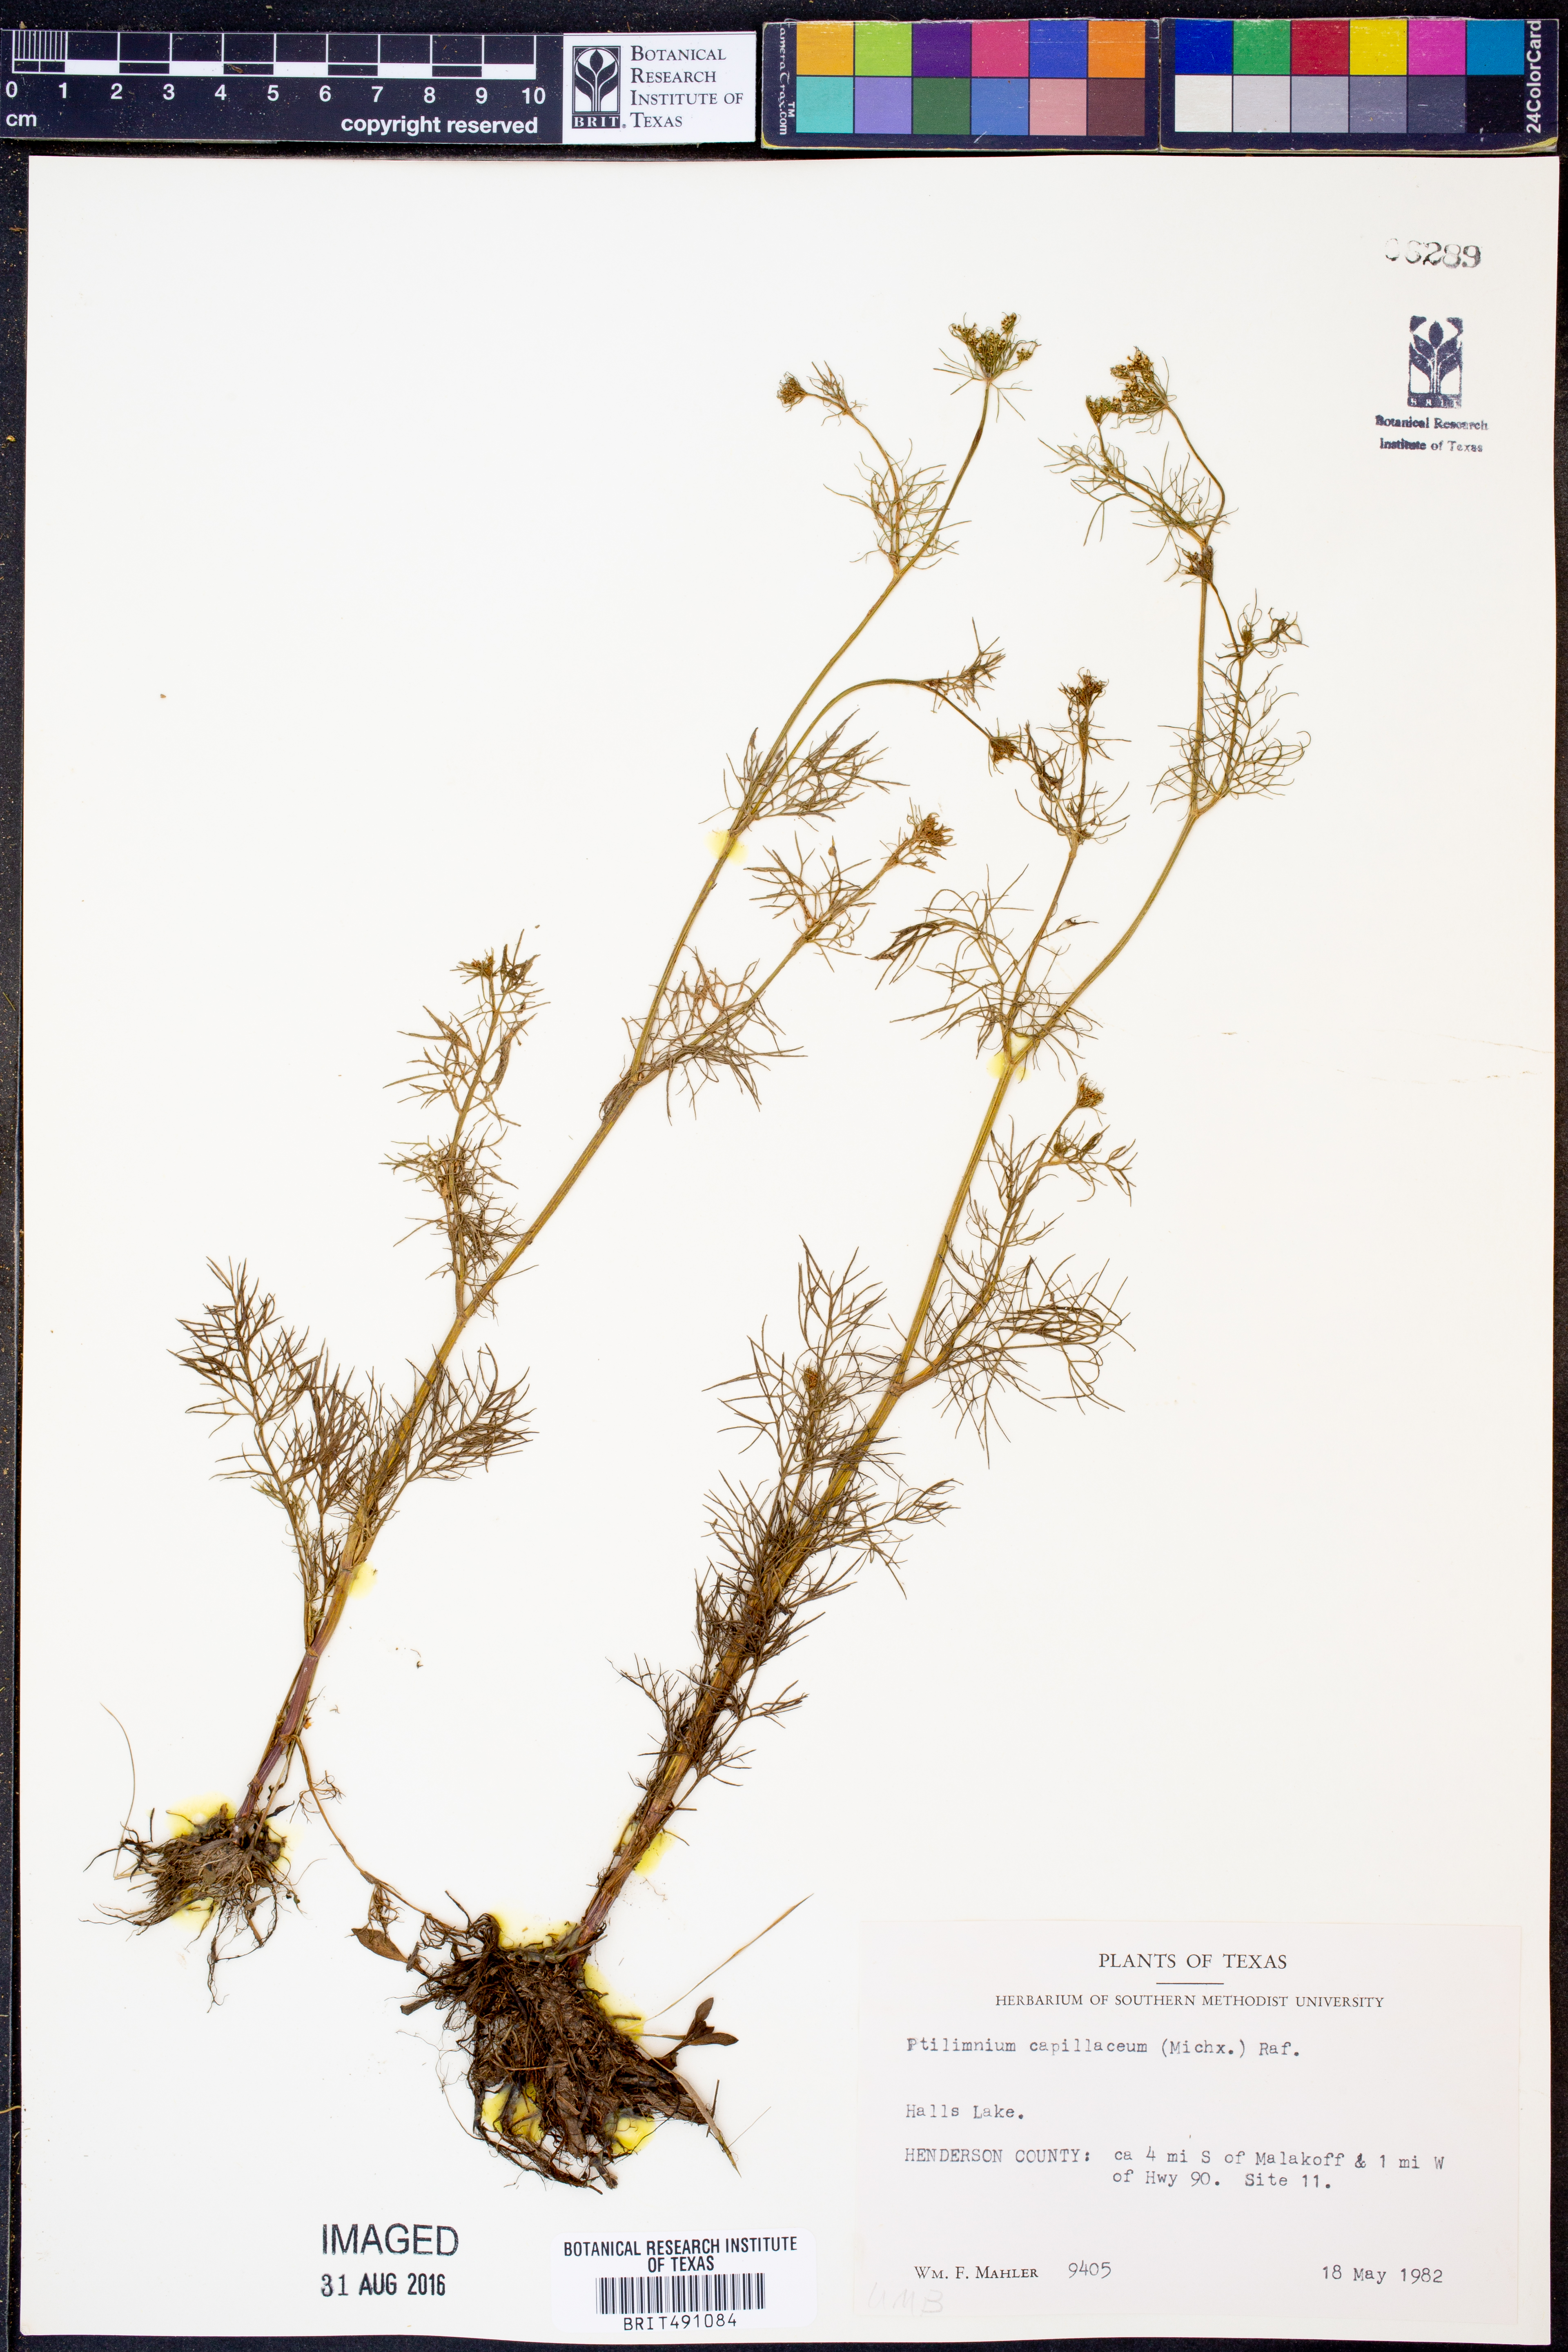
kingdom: Plantae
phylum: Tracheophyta
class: Magnoliopsida
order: Apiales
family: Apiaceae
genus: Ptilimnium
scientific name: Ptilimnium capillaceum
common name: Herbwilliam
